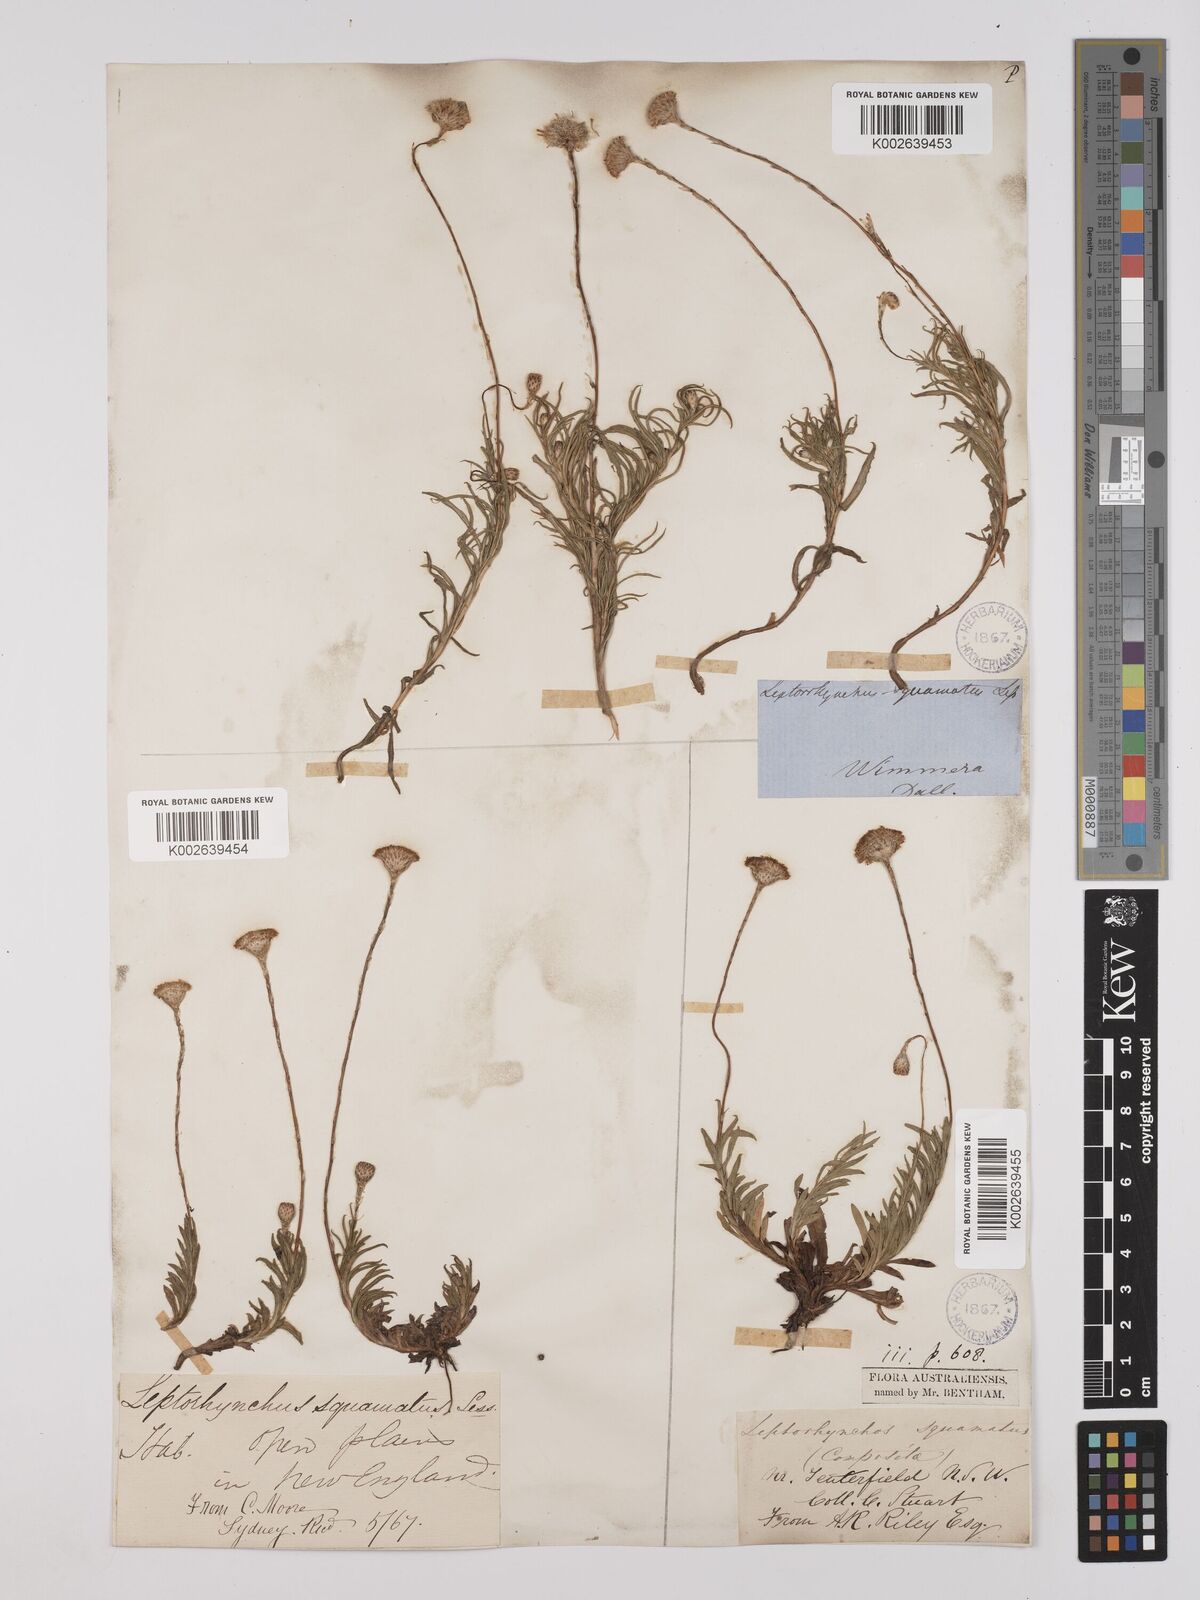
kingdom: Plantae
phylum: Tracheophyta
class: Magnoliopsida
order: Asterales
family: Asteraceae
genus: Leptorhynchos
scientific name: Leptorhynchos squamatus
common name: Scaly-buttons
